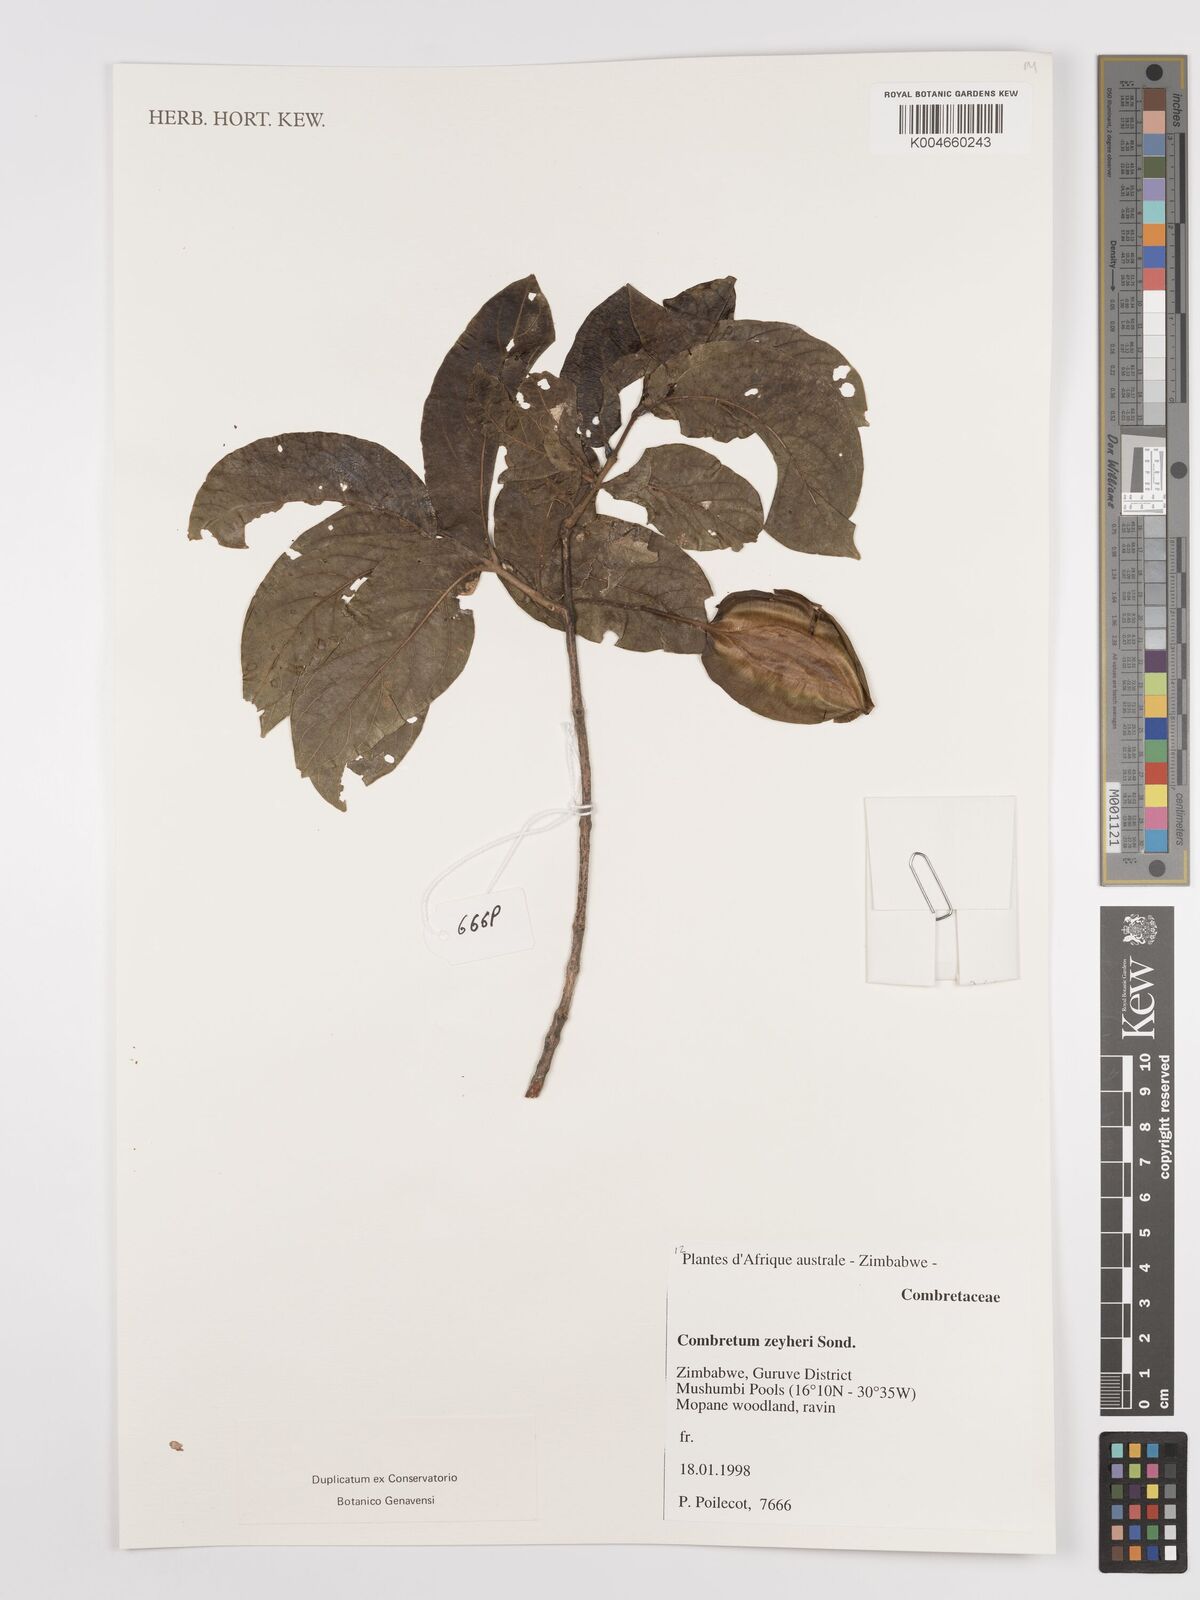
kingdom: Plantae
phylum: Tracheophyta
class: Magnoliopsida
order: Myrtales
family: Combretaceae
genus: Combretum
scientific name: Combretum zeyheri
